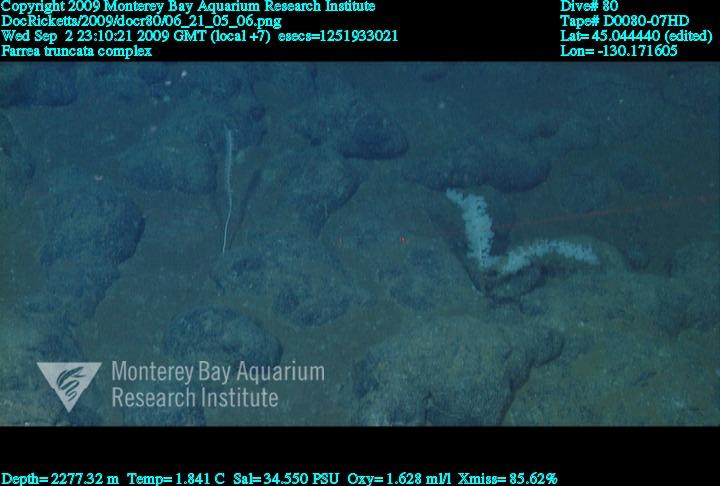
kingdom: Animalia
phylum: Porifera
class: Hexactinellida
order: Sceptrulophora
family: Farreidae
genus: Farrea
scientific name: Farrea truncata
